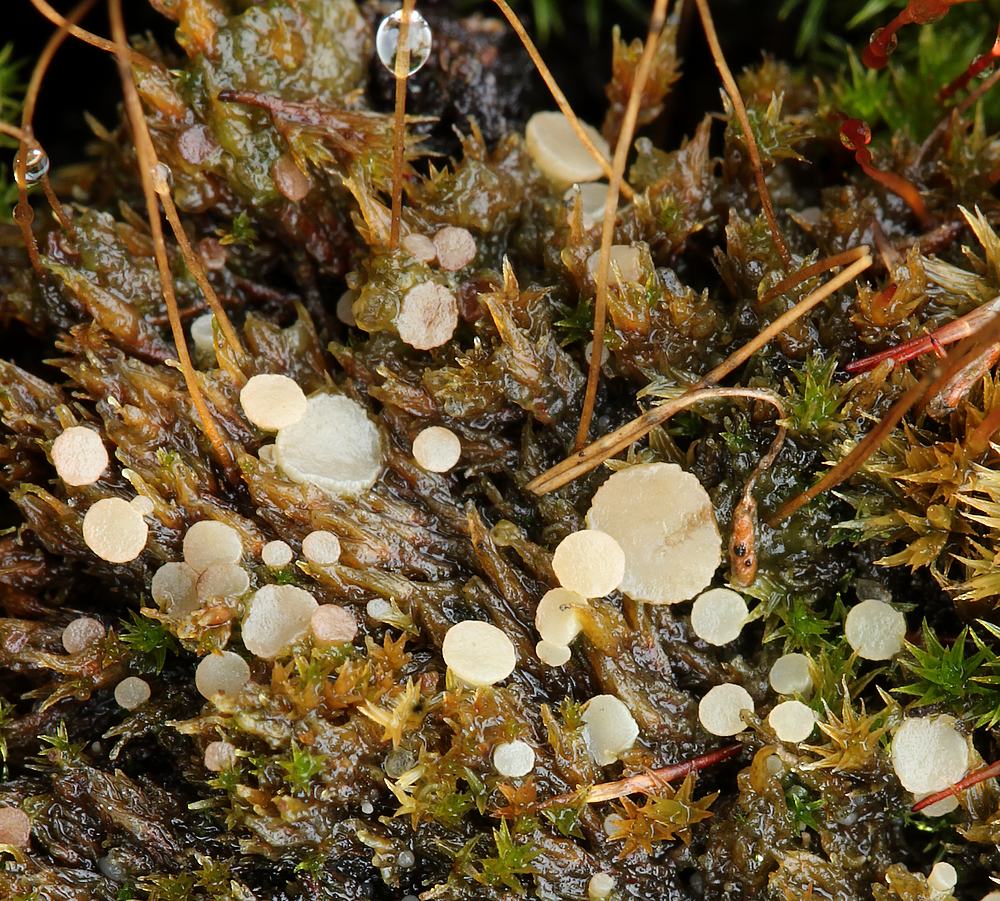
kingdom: Fungi
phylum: Ascomycota
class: Leotiomycetes
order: Helotiales
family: Helotiaceae
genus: Bryoscyphus
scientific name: Bryoscyphus dicrani
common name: bladmos-stilkskive
